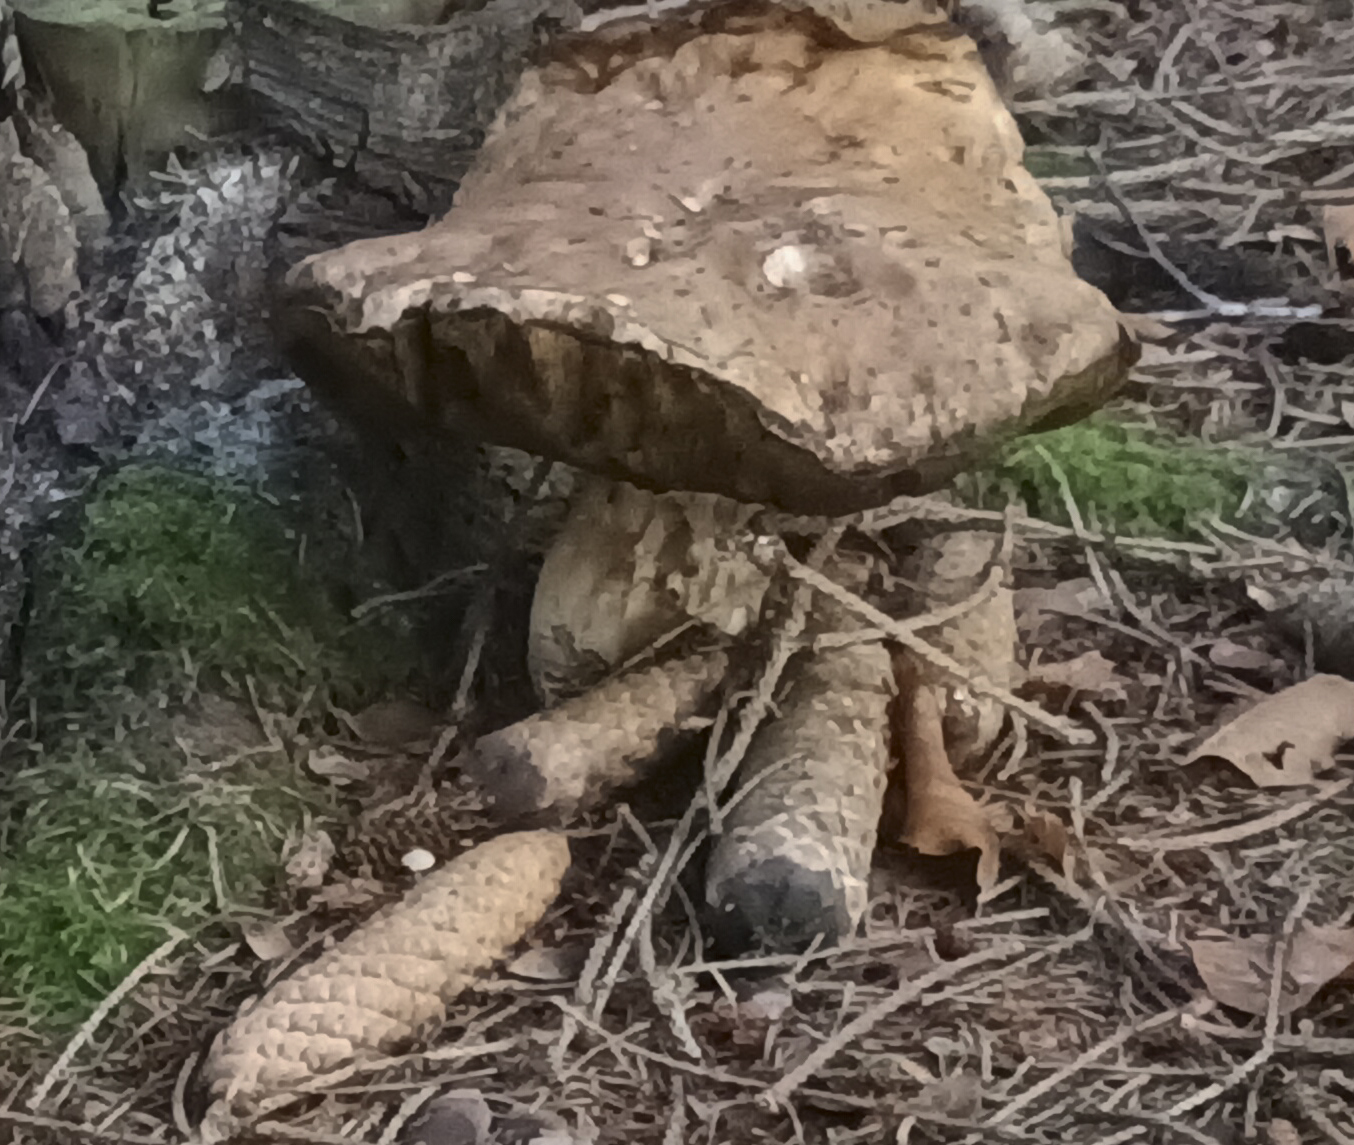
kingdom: Fungi
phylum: Basidiomycota
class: Agaricomycetes
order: Boletales
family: Boletaceae
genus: Boletus
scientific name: Boletus edulis
